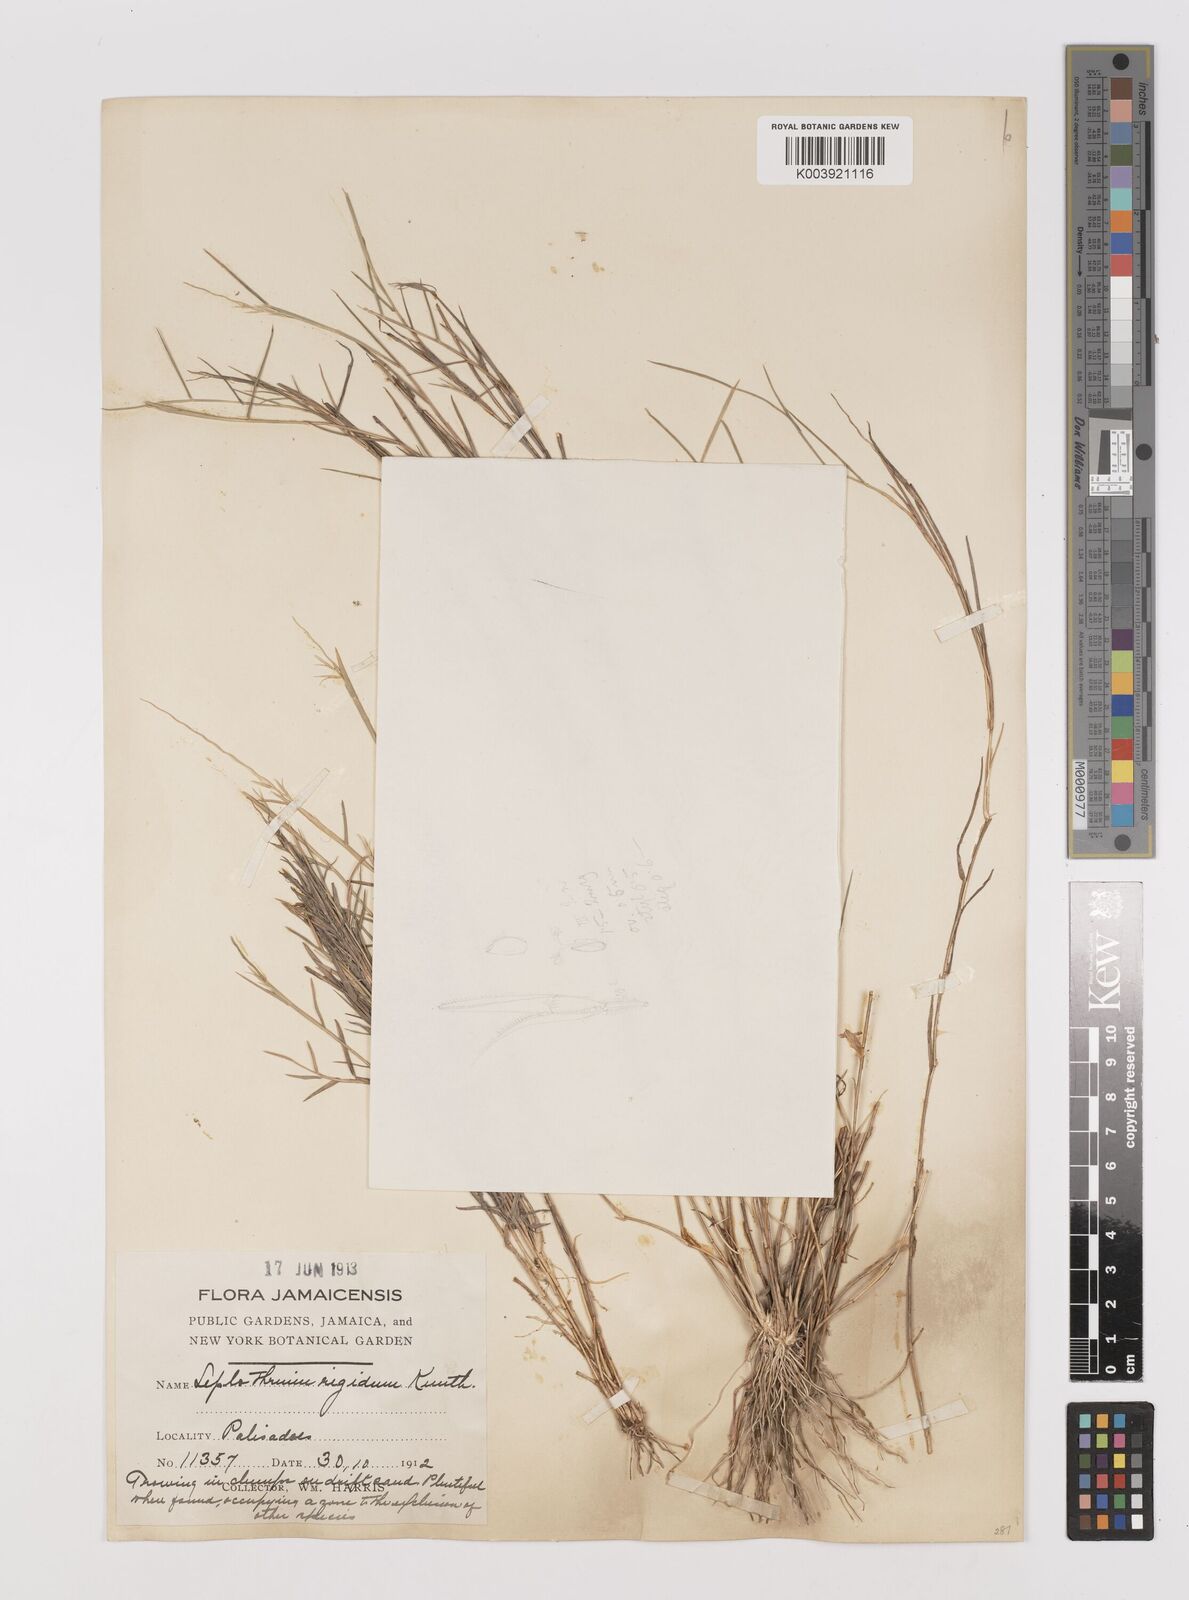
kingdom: Plantae
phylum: Tracheophyta
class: Liliopsida
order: Poales
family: Poaceae
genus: Leptothrium
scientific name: Leptothrium rigidum
